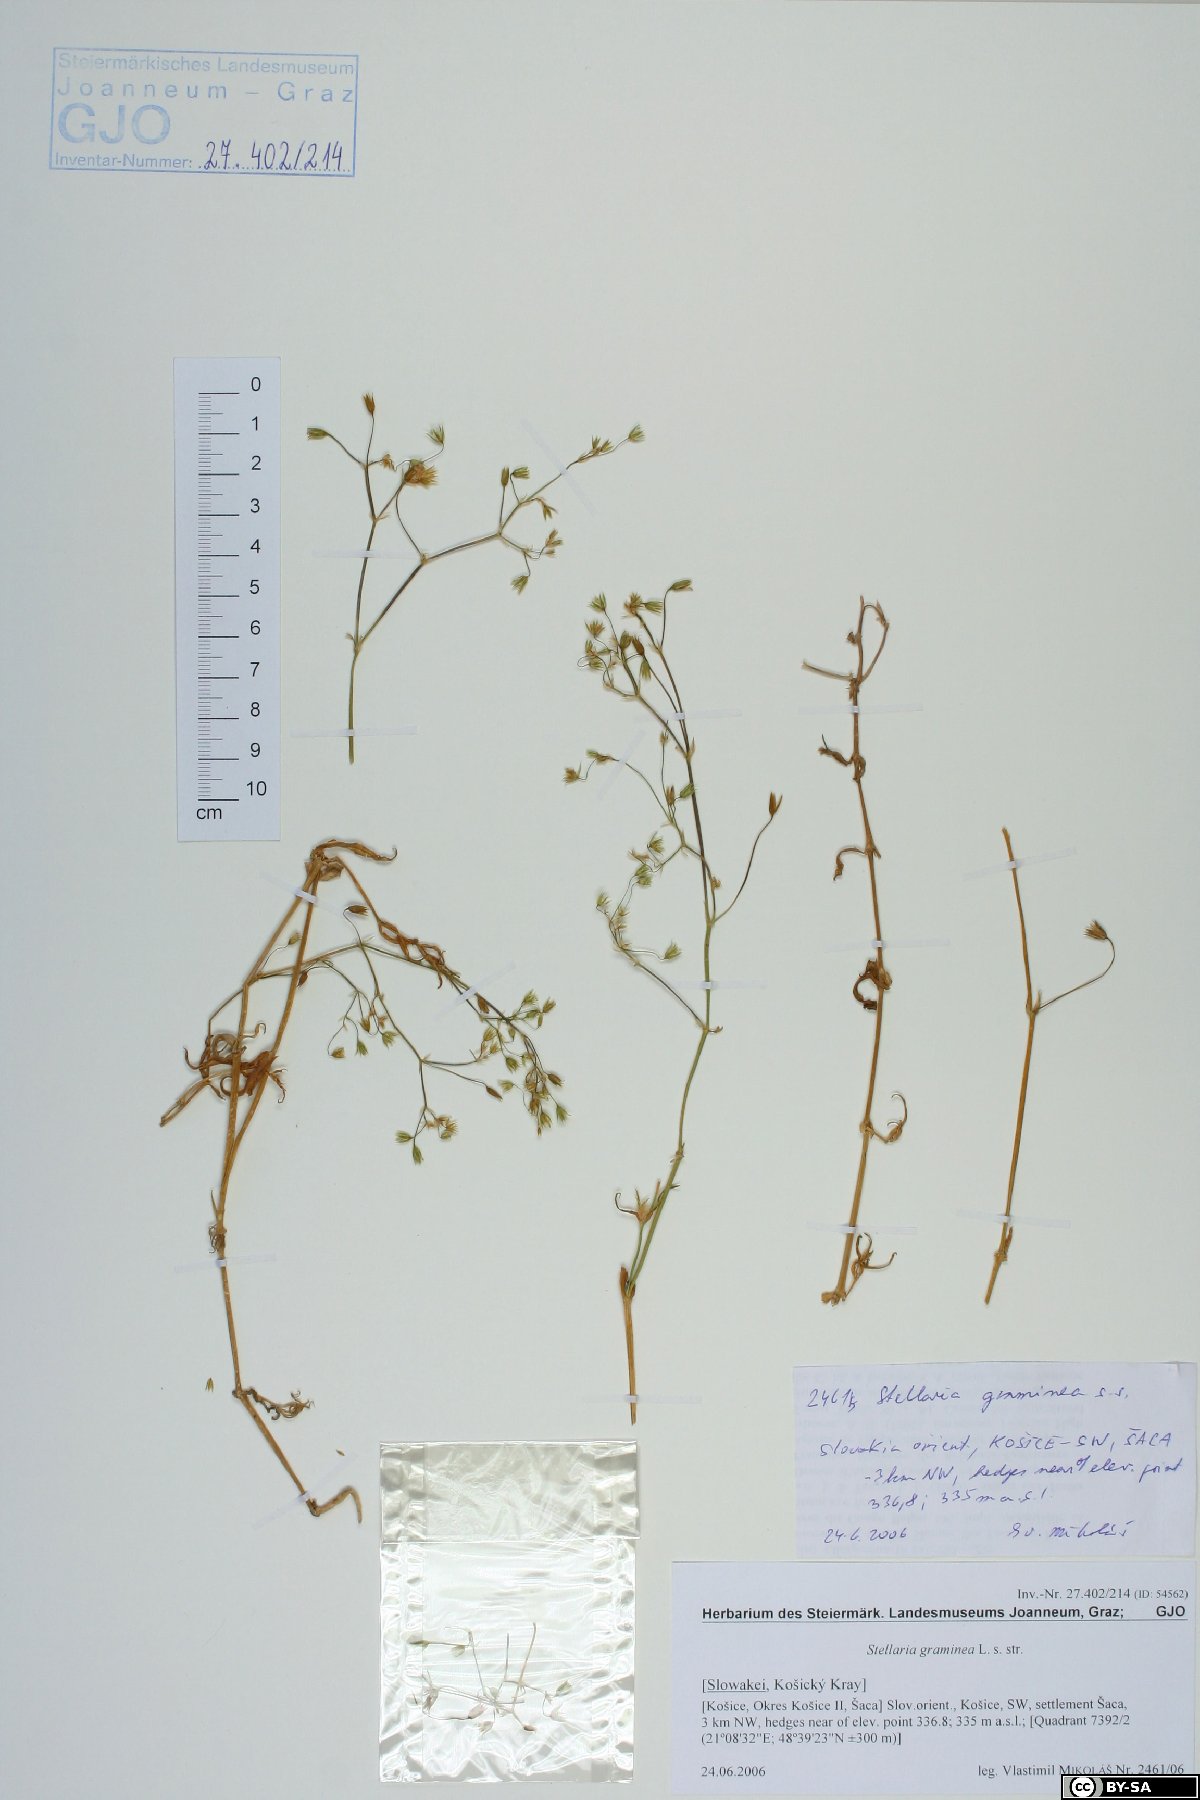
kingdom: Plantae
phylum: Tracheophyta
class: Magnoliopsida
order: Caryophyllales
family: Caryophyllaceae
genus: Stellaria
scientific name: Stellaria graminea
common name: Grass-like starwort
